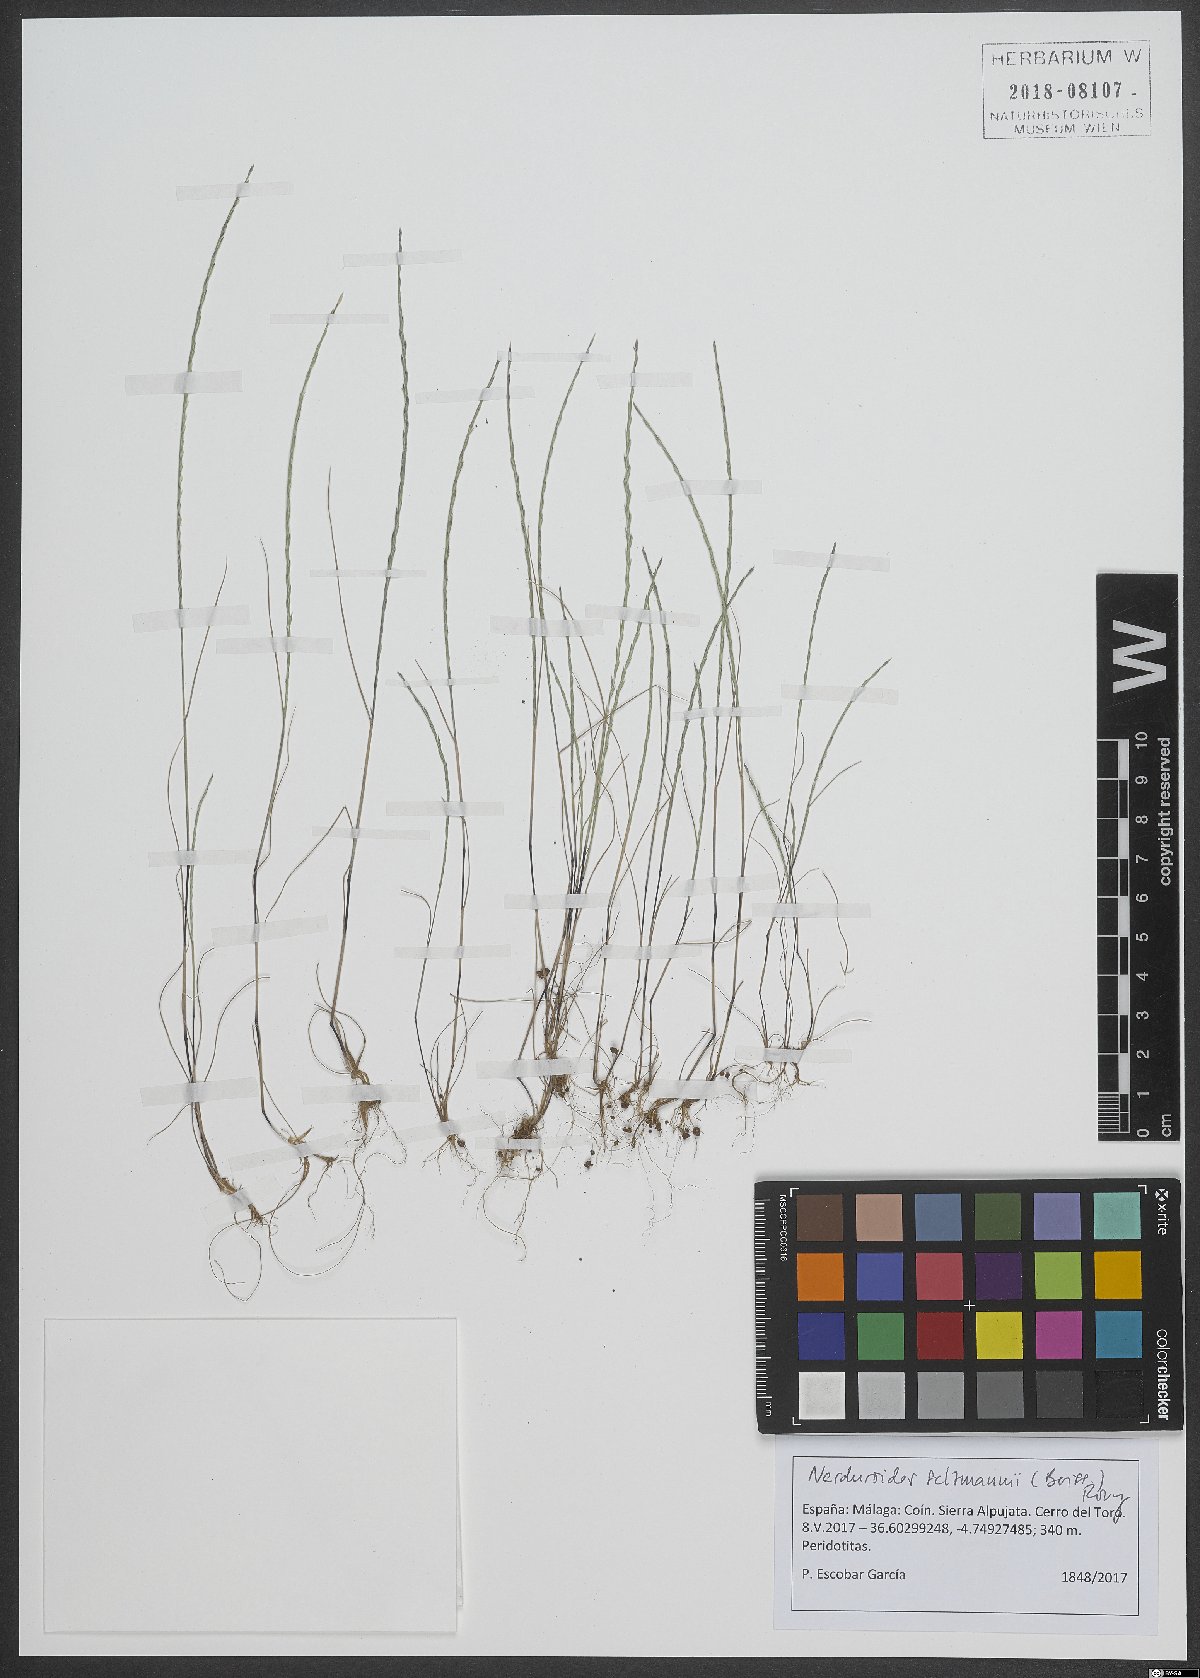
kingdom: Plantae
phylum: Tracheophyta
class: Liliopsida
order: Poales
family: Poaceae
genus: Festuca
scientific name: Festuca salzmannii
